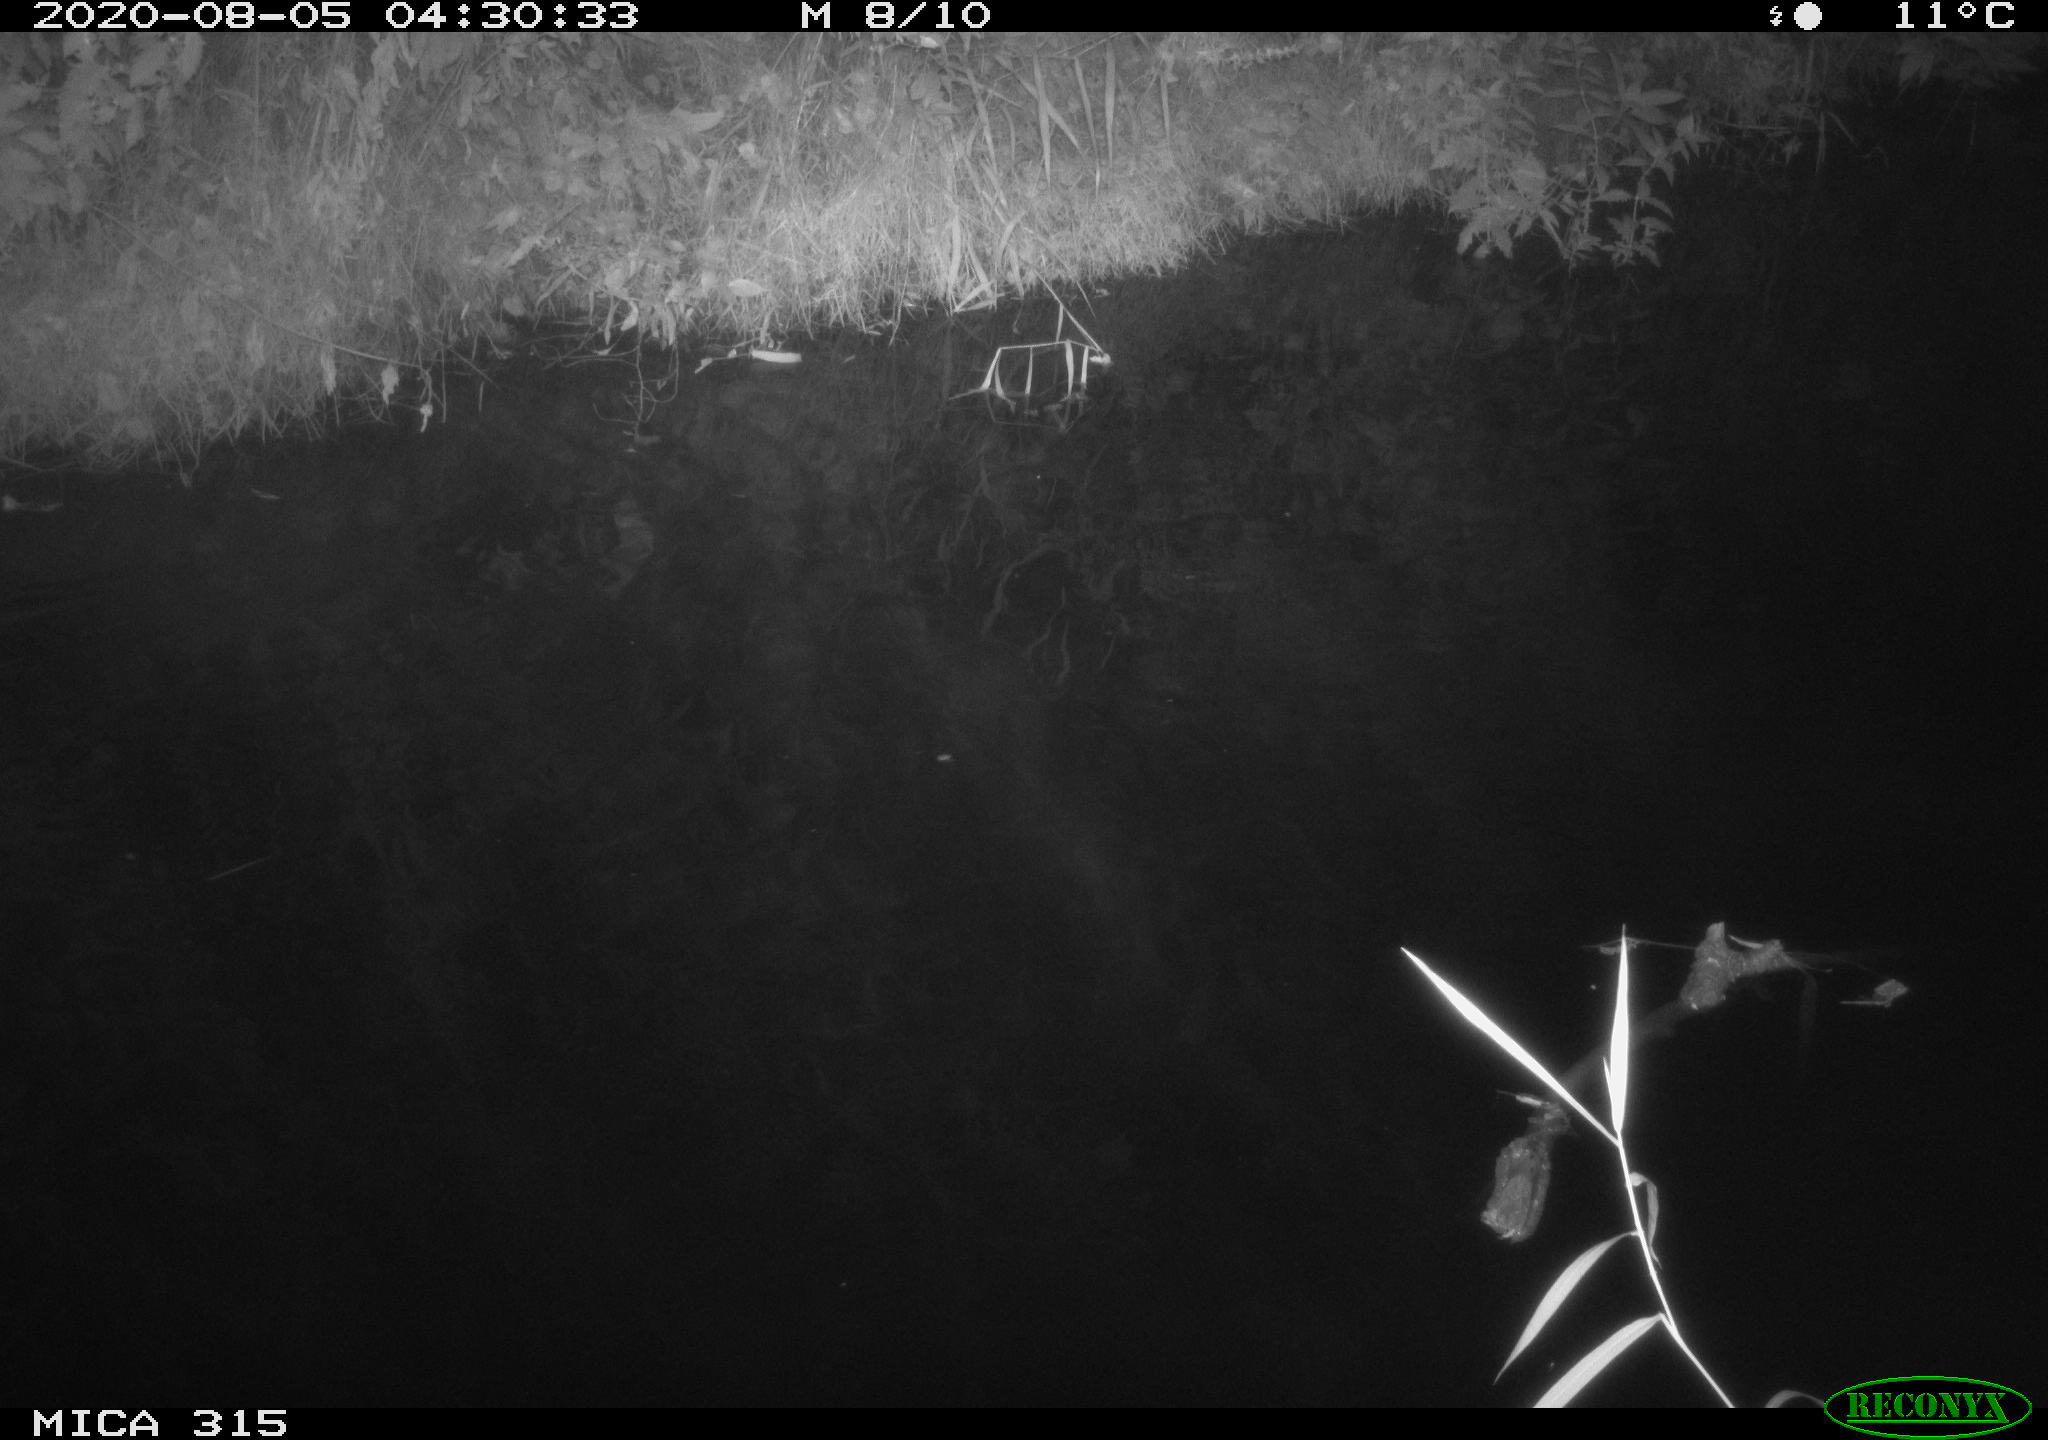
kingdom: Animalia
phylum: Chordata
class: Aves
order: Anseriformes
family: Anatidae
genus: Anas
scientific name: Anas platyrhynchos
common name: Mallard
